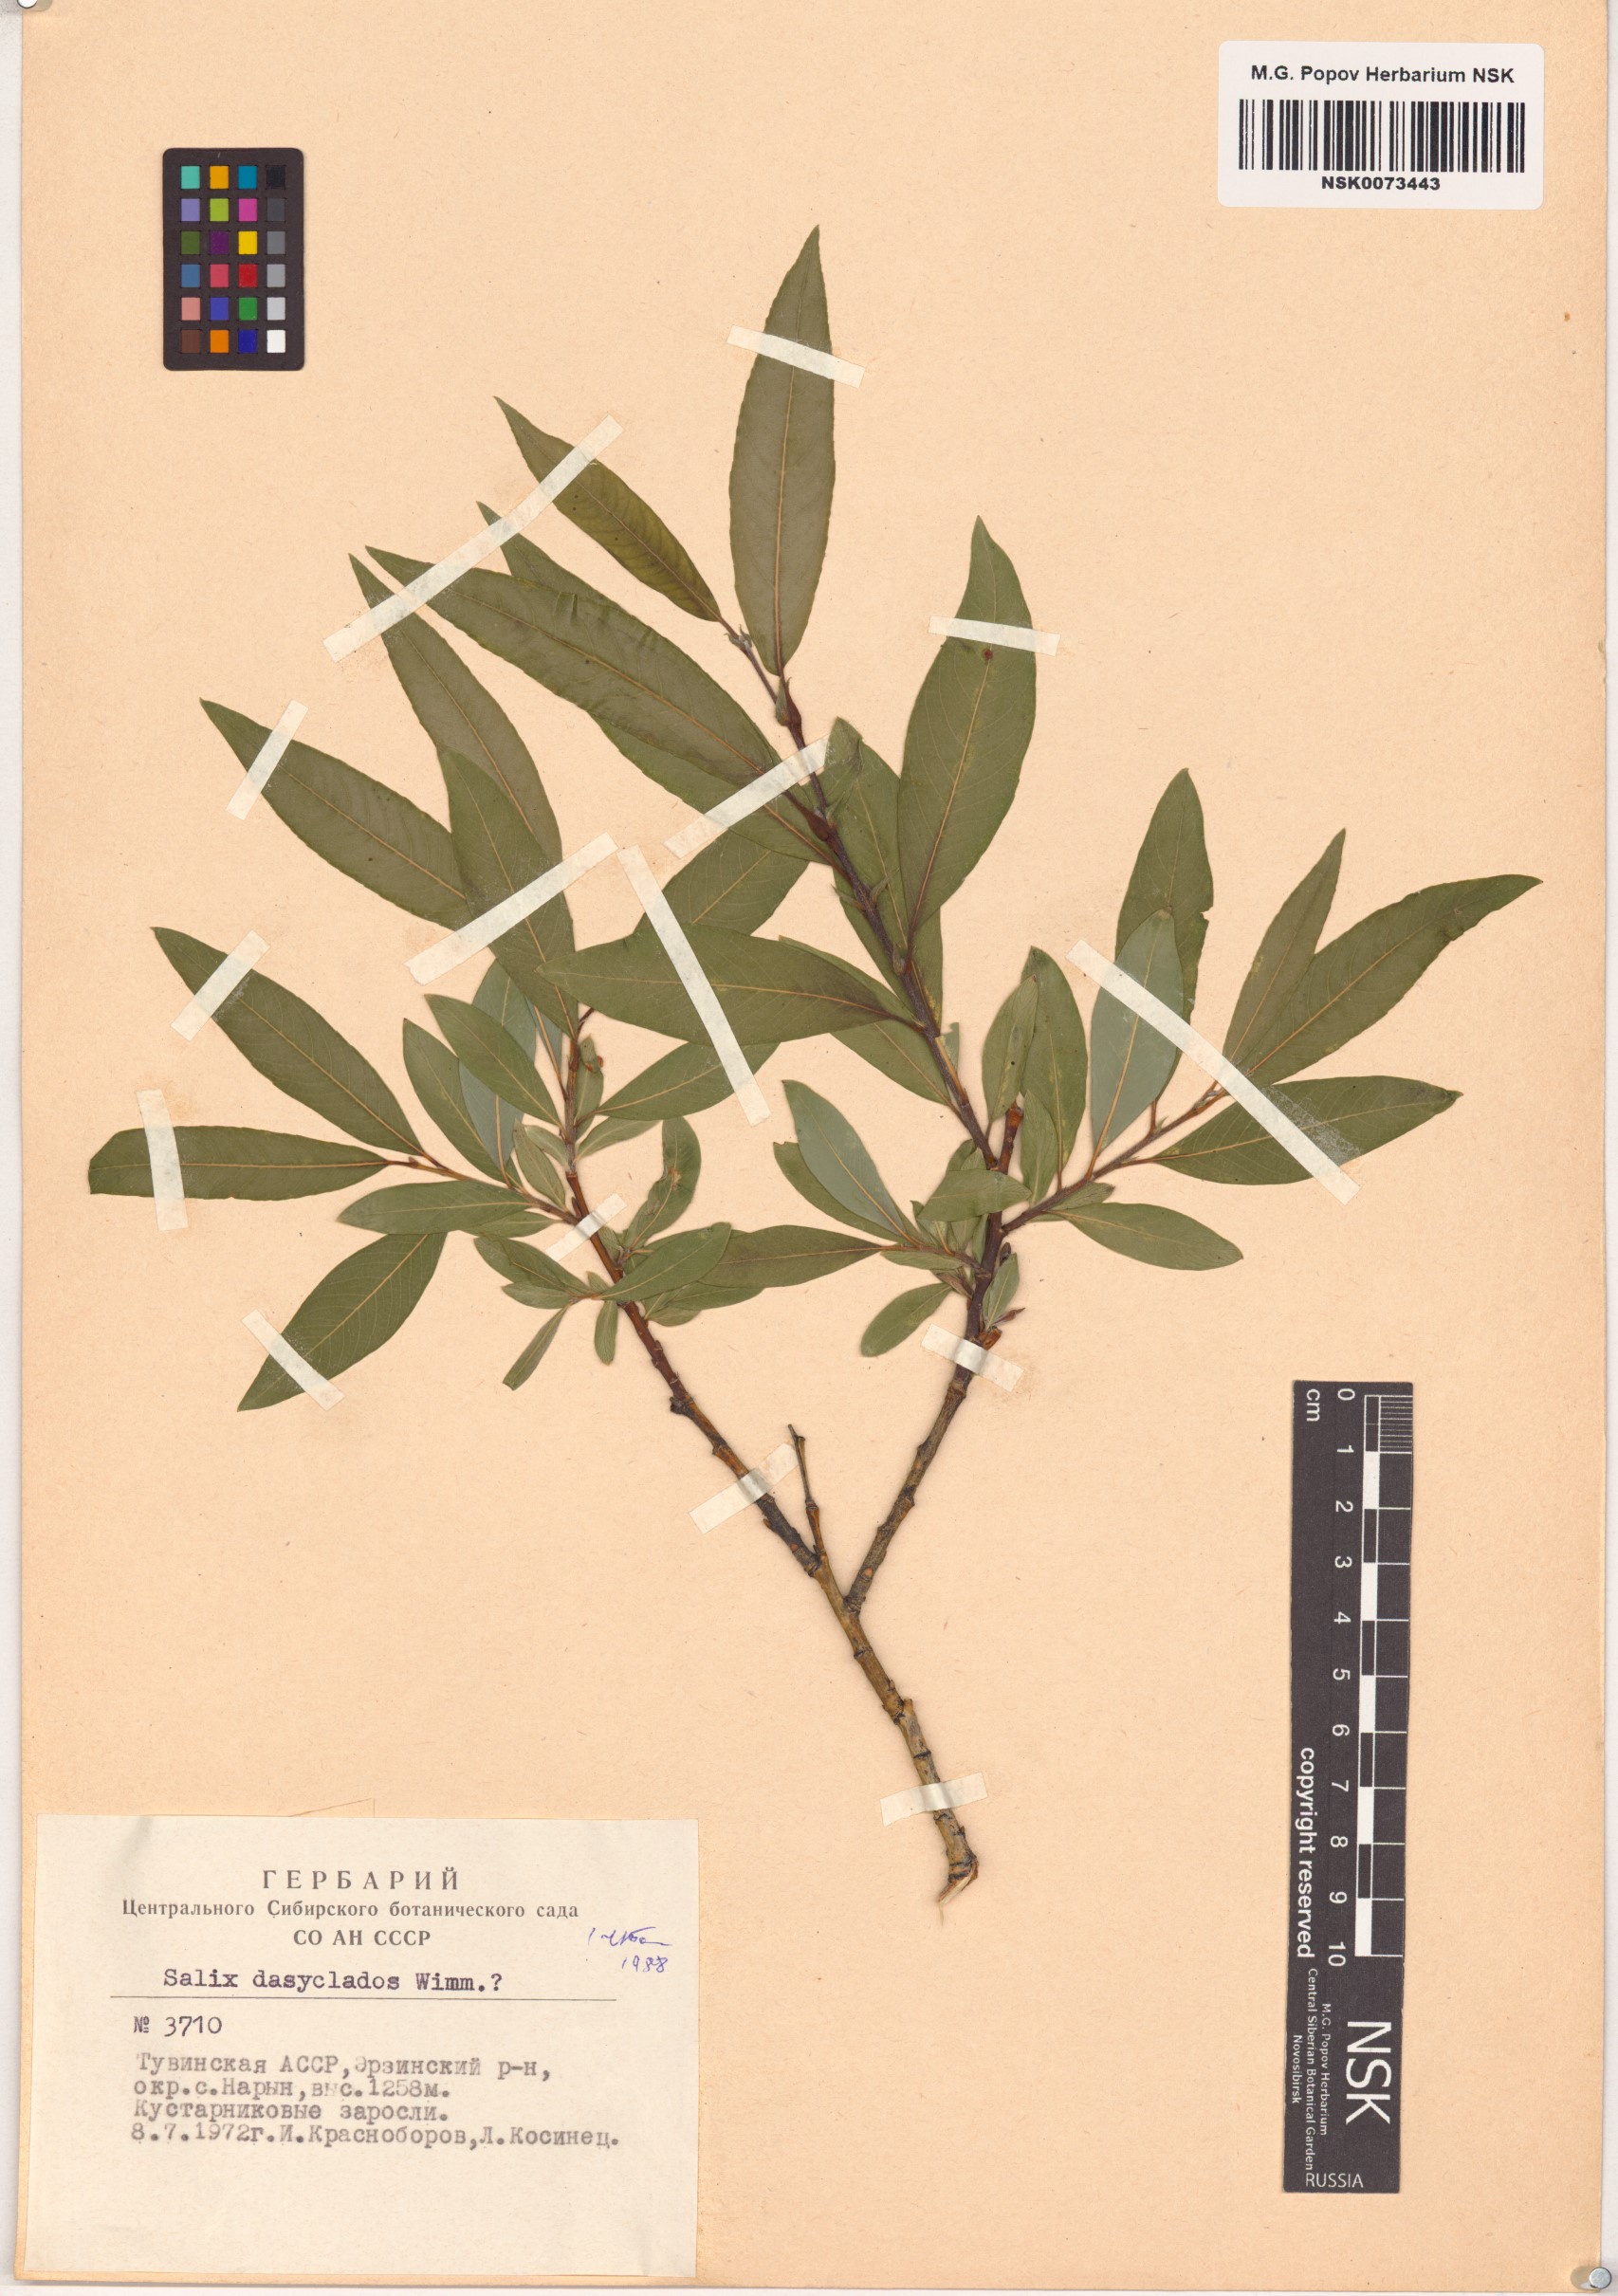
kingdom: Plantae
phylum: Tracheophyta
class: Magnoliopsida
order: Malpighiales
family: Salicaceae
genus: Salix
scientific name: Salix gmelinii
